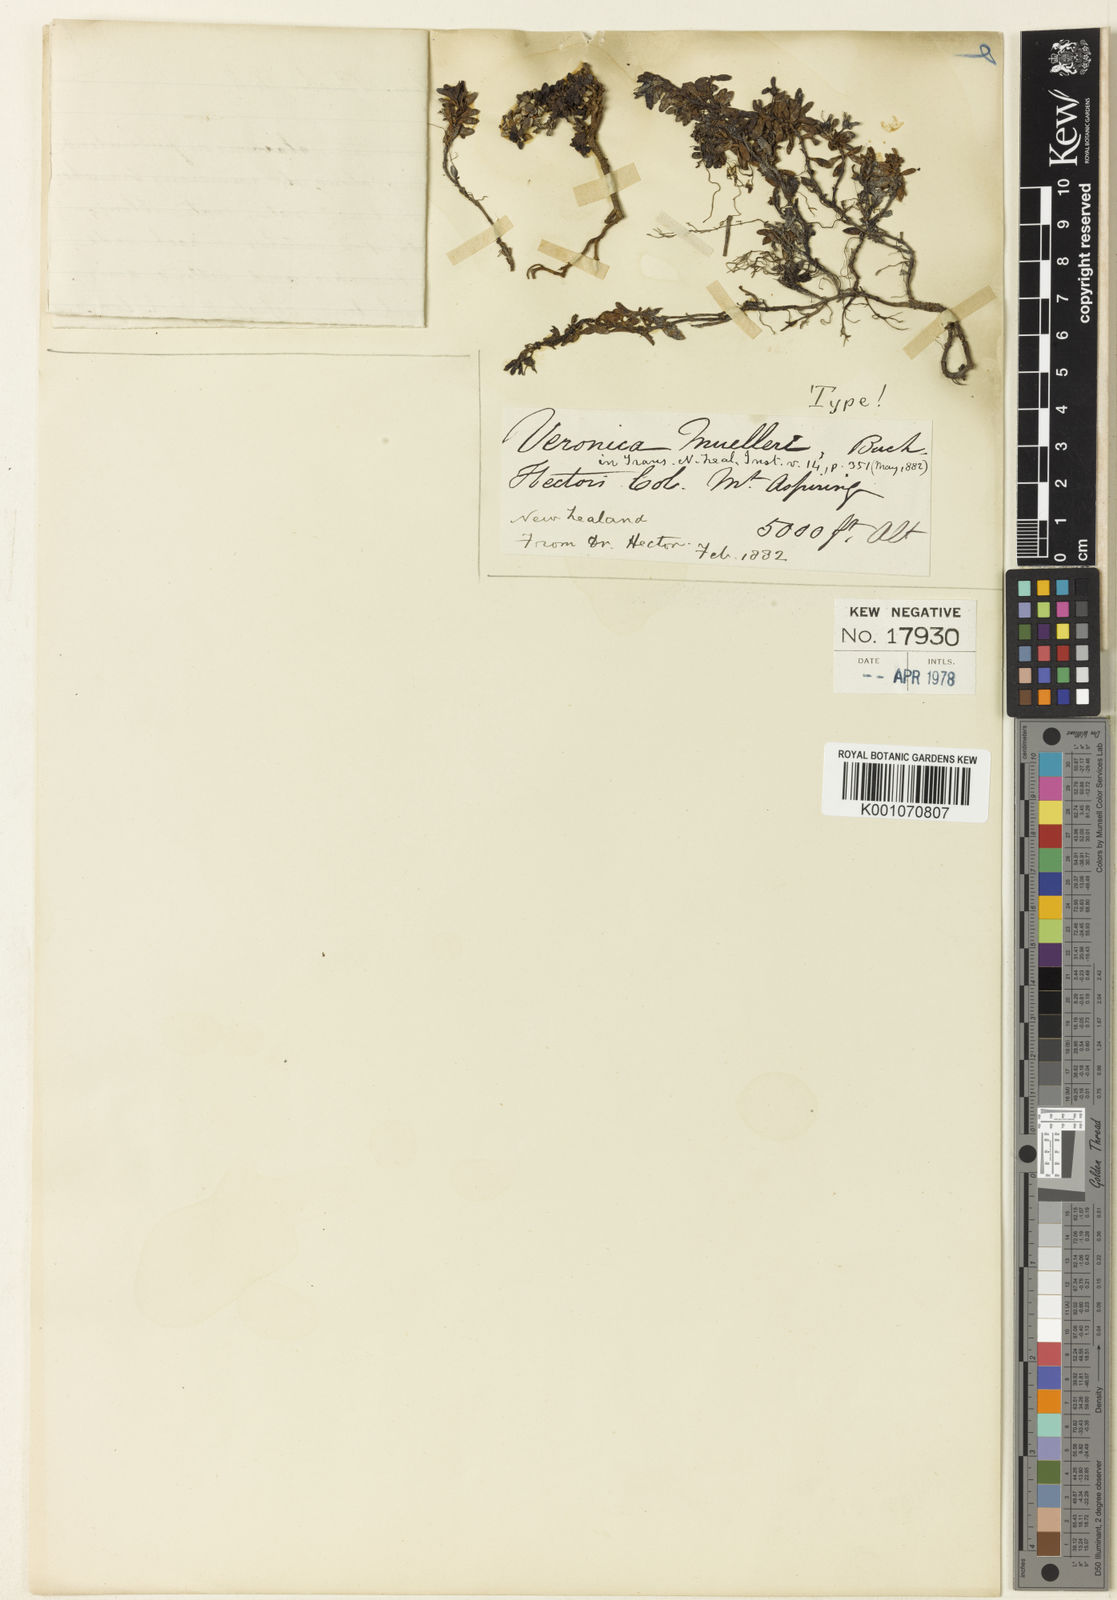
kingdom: Plantae
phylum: Tracheophyta
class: Magnoliopsida
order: Lamiales
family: Plantaginaceae
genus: Veronica
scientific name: Veronica
